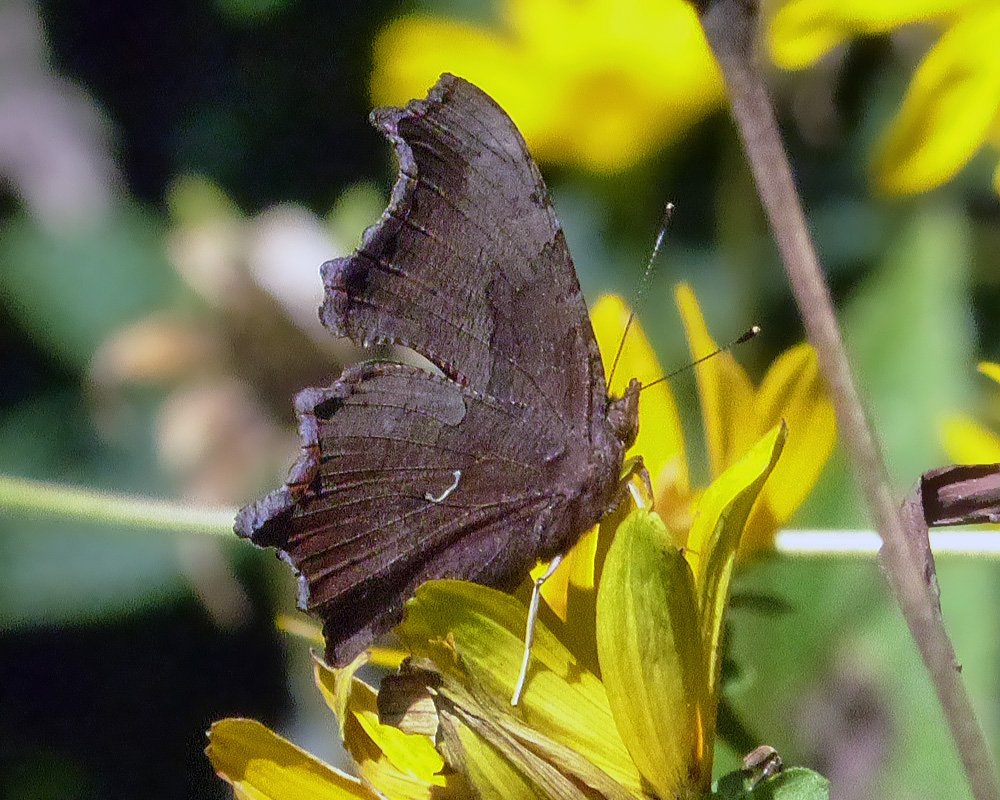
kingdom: Animalia
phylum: Arthropoda
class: Insecta
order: Lepidoptera
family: Nymphalidae
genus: Polygonia
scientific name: Polygonia comma
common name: Eastern Comma
